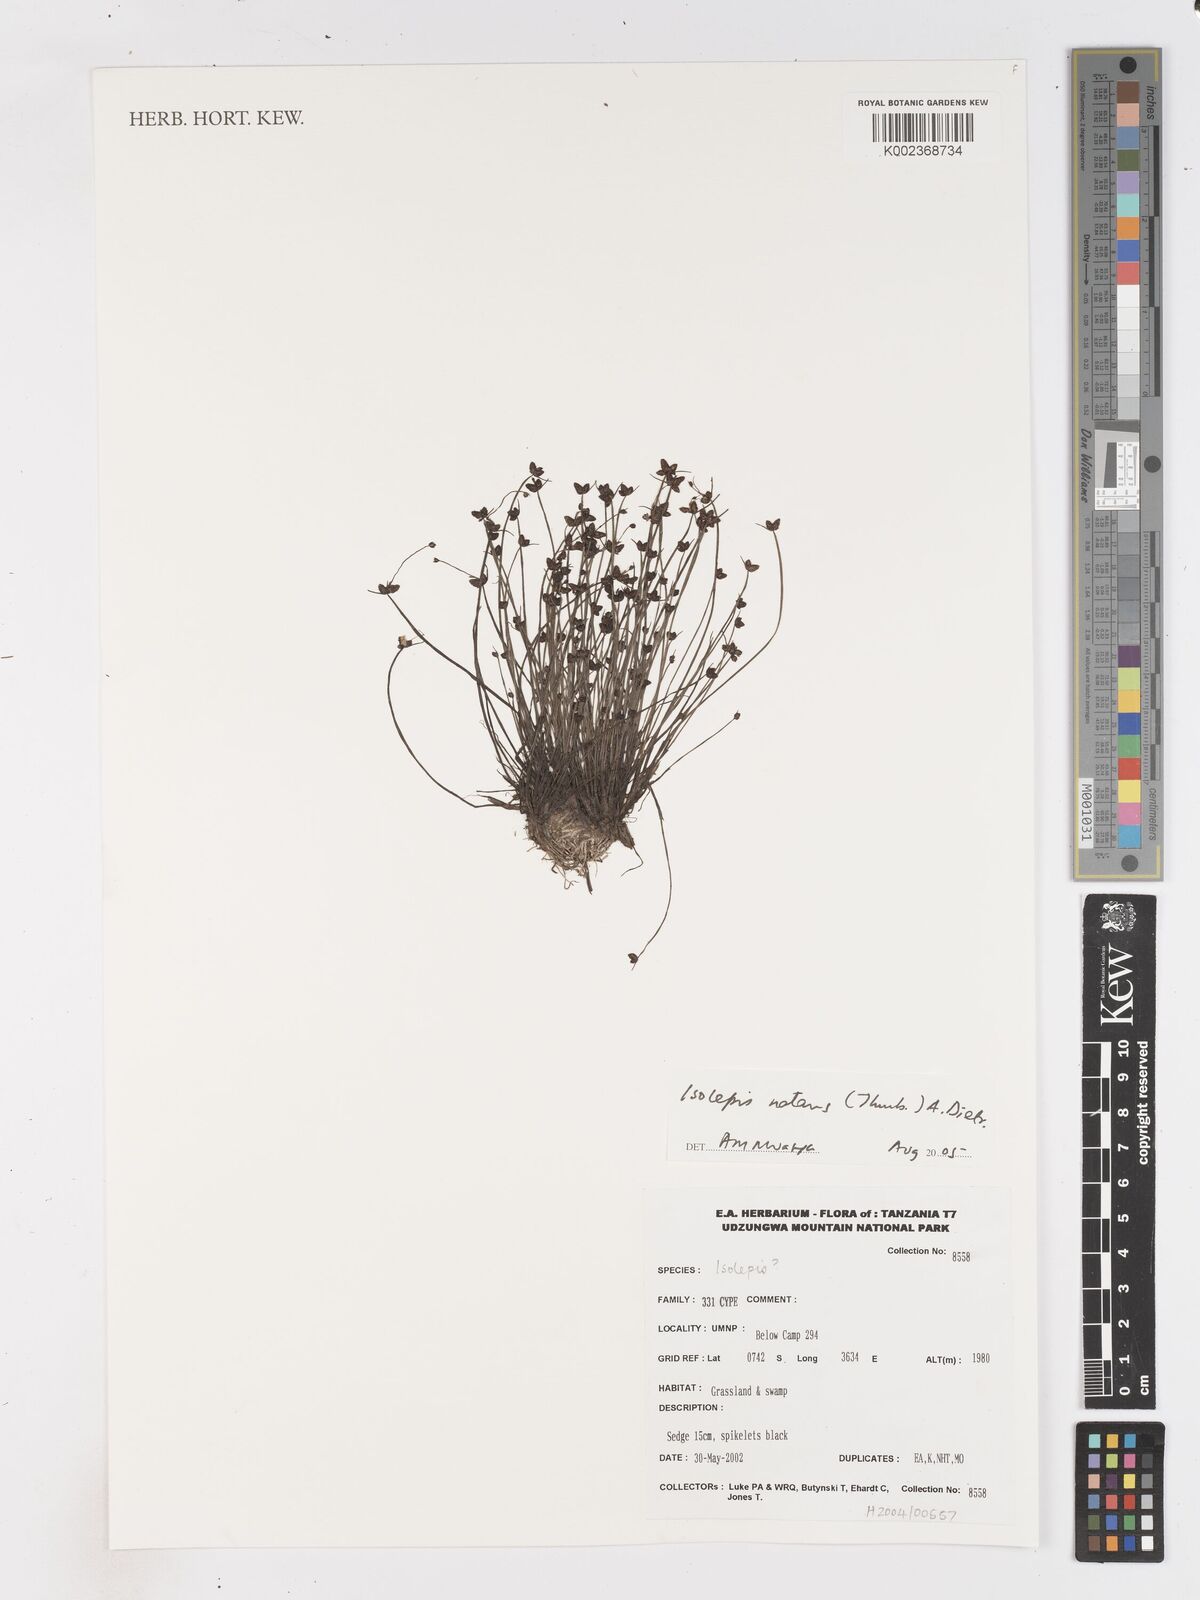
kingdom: Plantae
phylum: Tracheophyta
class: Liliopsida
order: Poales
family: Cyperaceae
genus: Isolepis
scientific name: Isolepis natans
